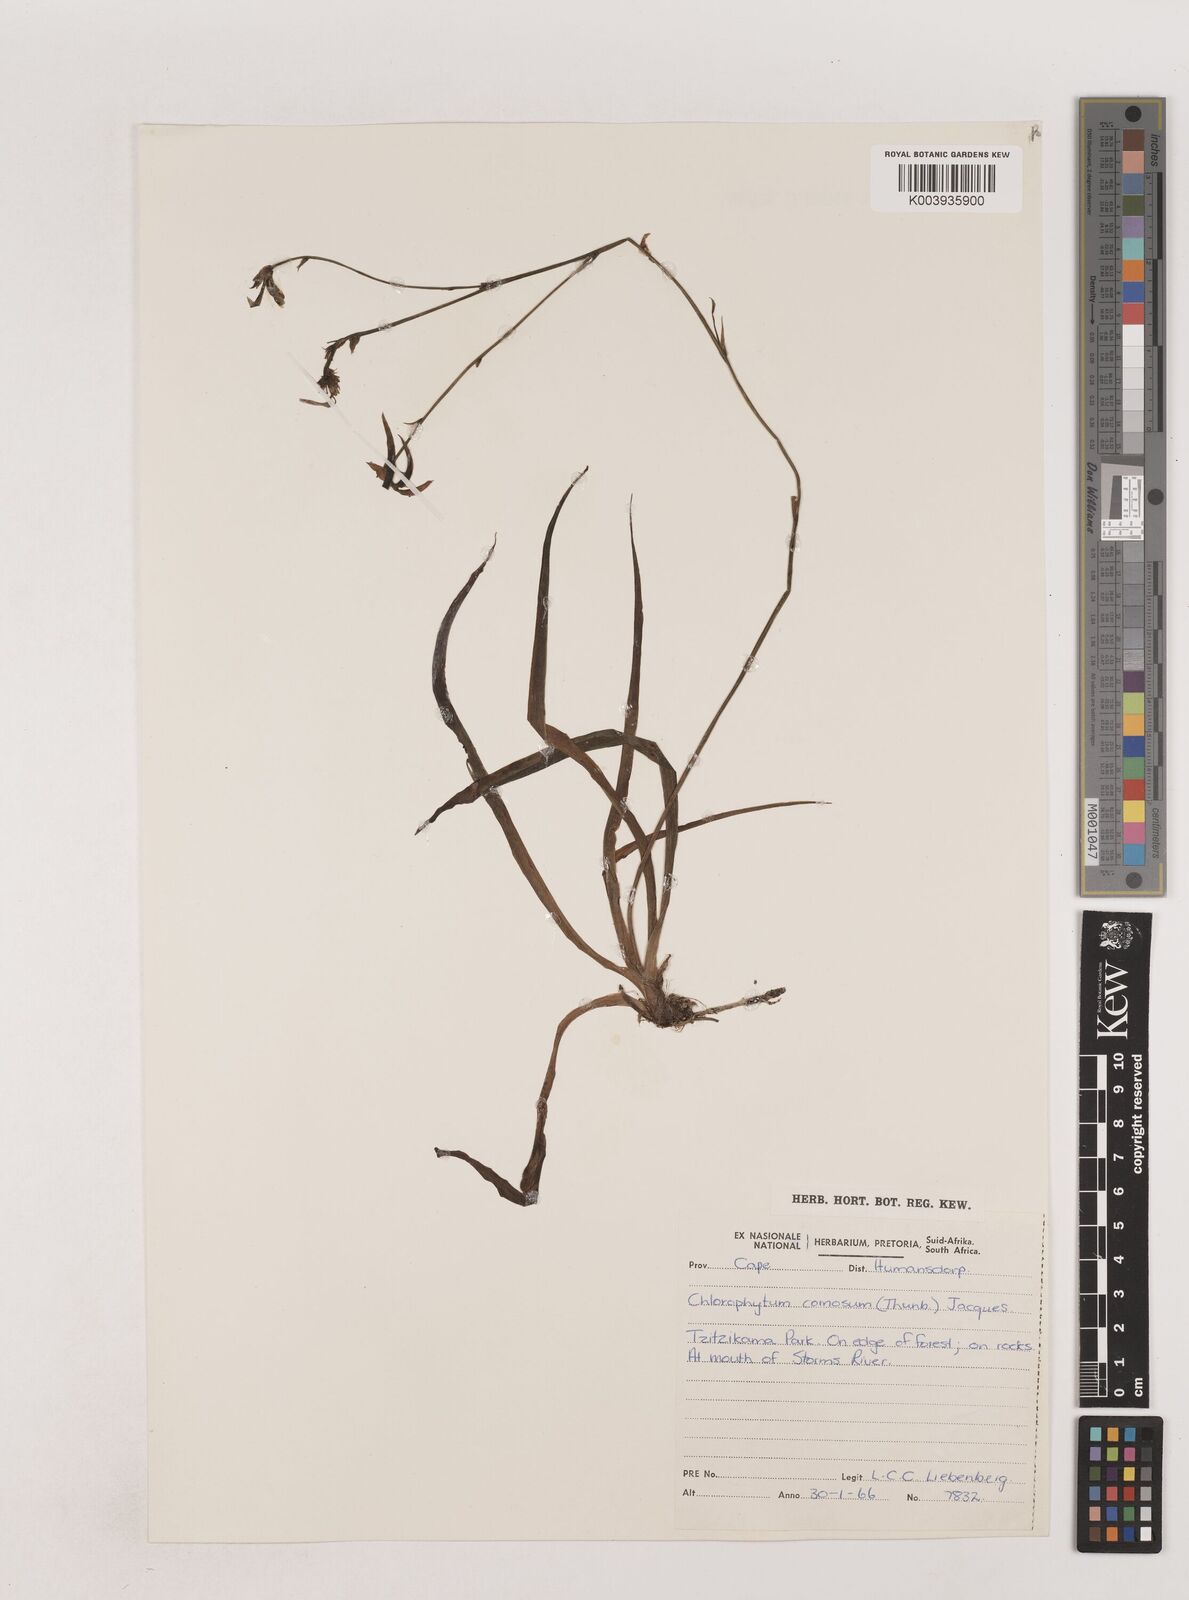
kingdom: Plantae
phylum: Tracheophyta
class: Liliopsida
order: Asparagales
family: Asparagaceae
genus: Chlorophytum
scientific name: Chlorophytum comosum
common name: Spider plant
